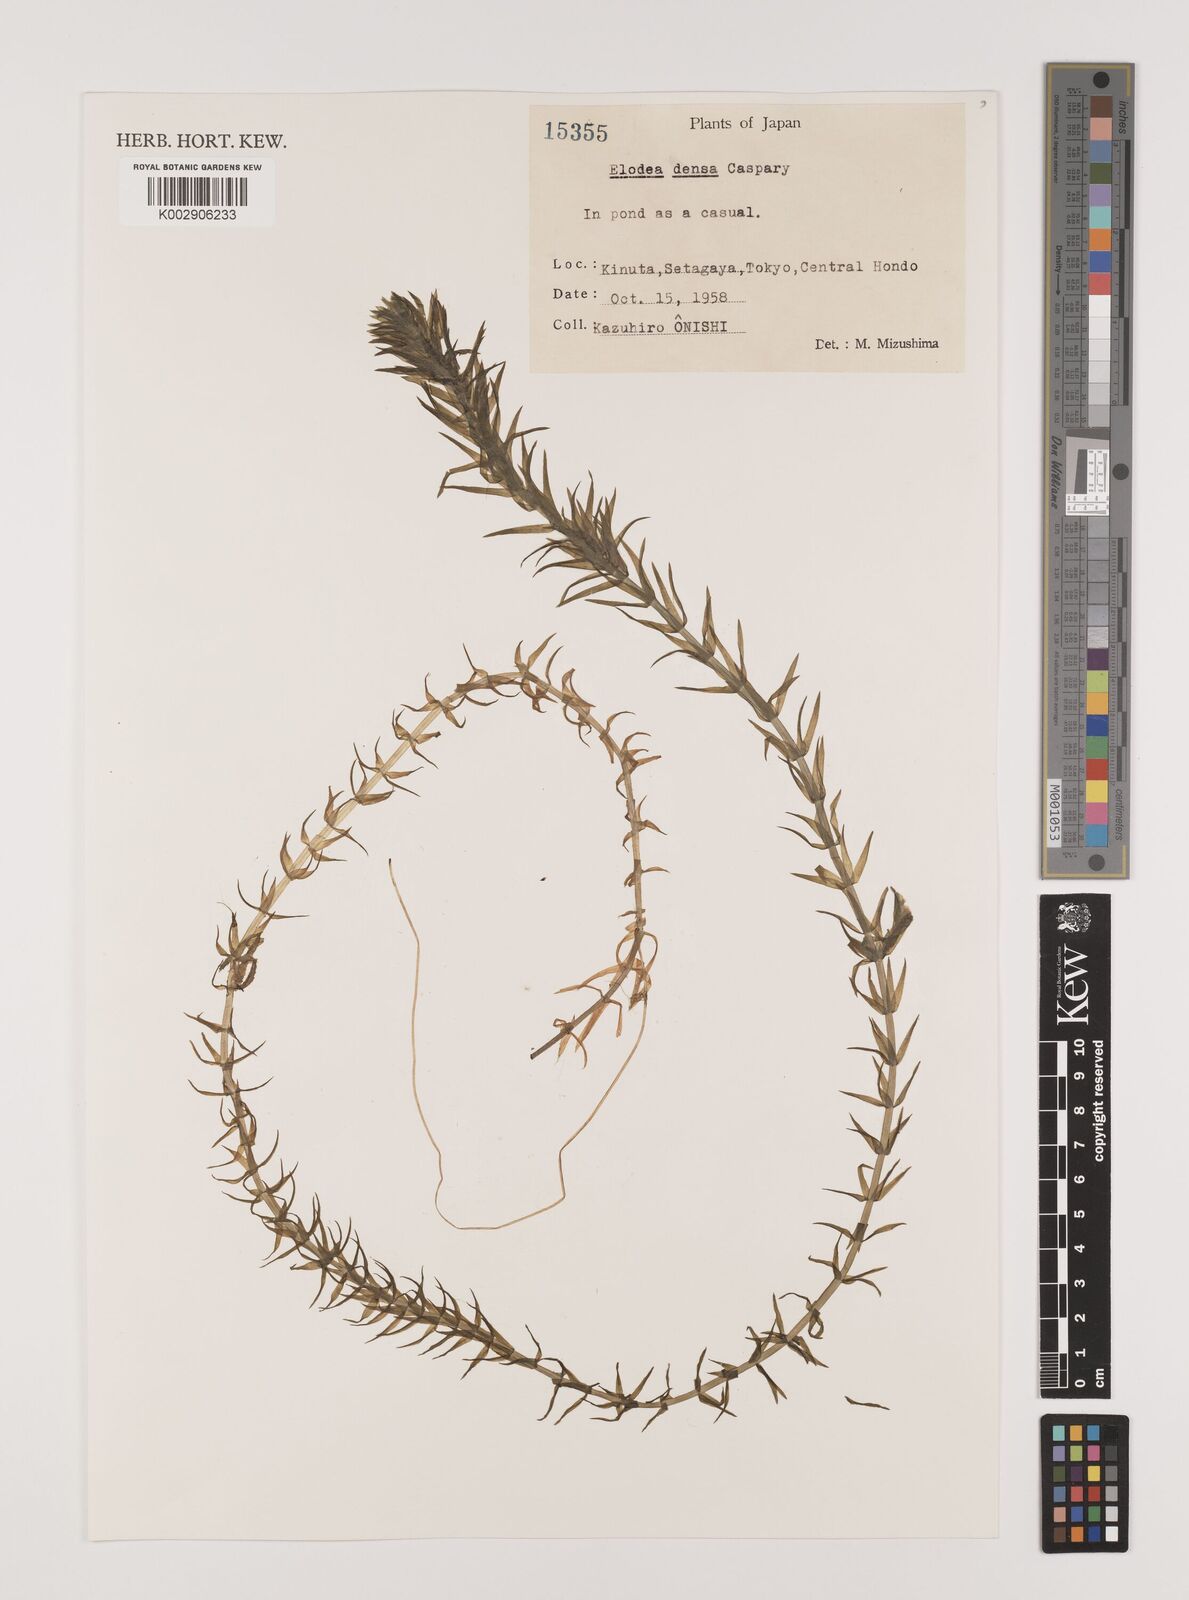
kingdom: Plantae
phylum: Tracheophyta
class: Liliopsida
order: Alismatales
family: Hydrocharitaceae
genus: Elodea
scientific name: Elodea densa
